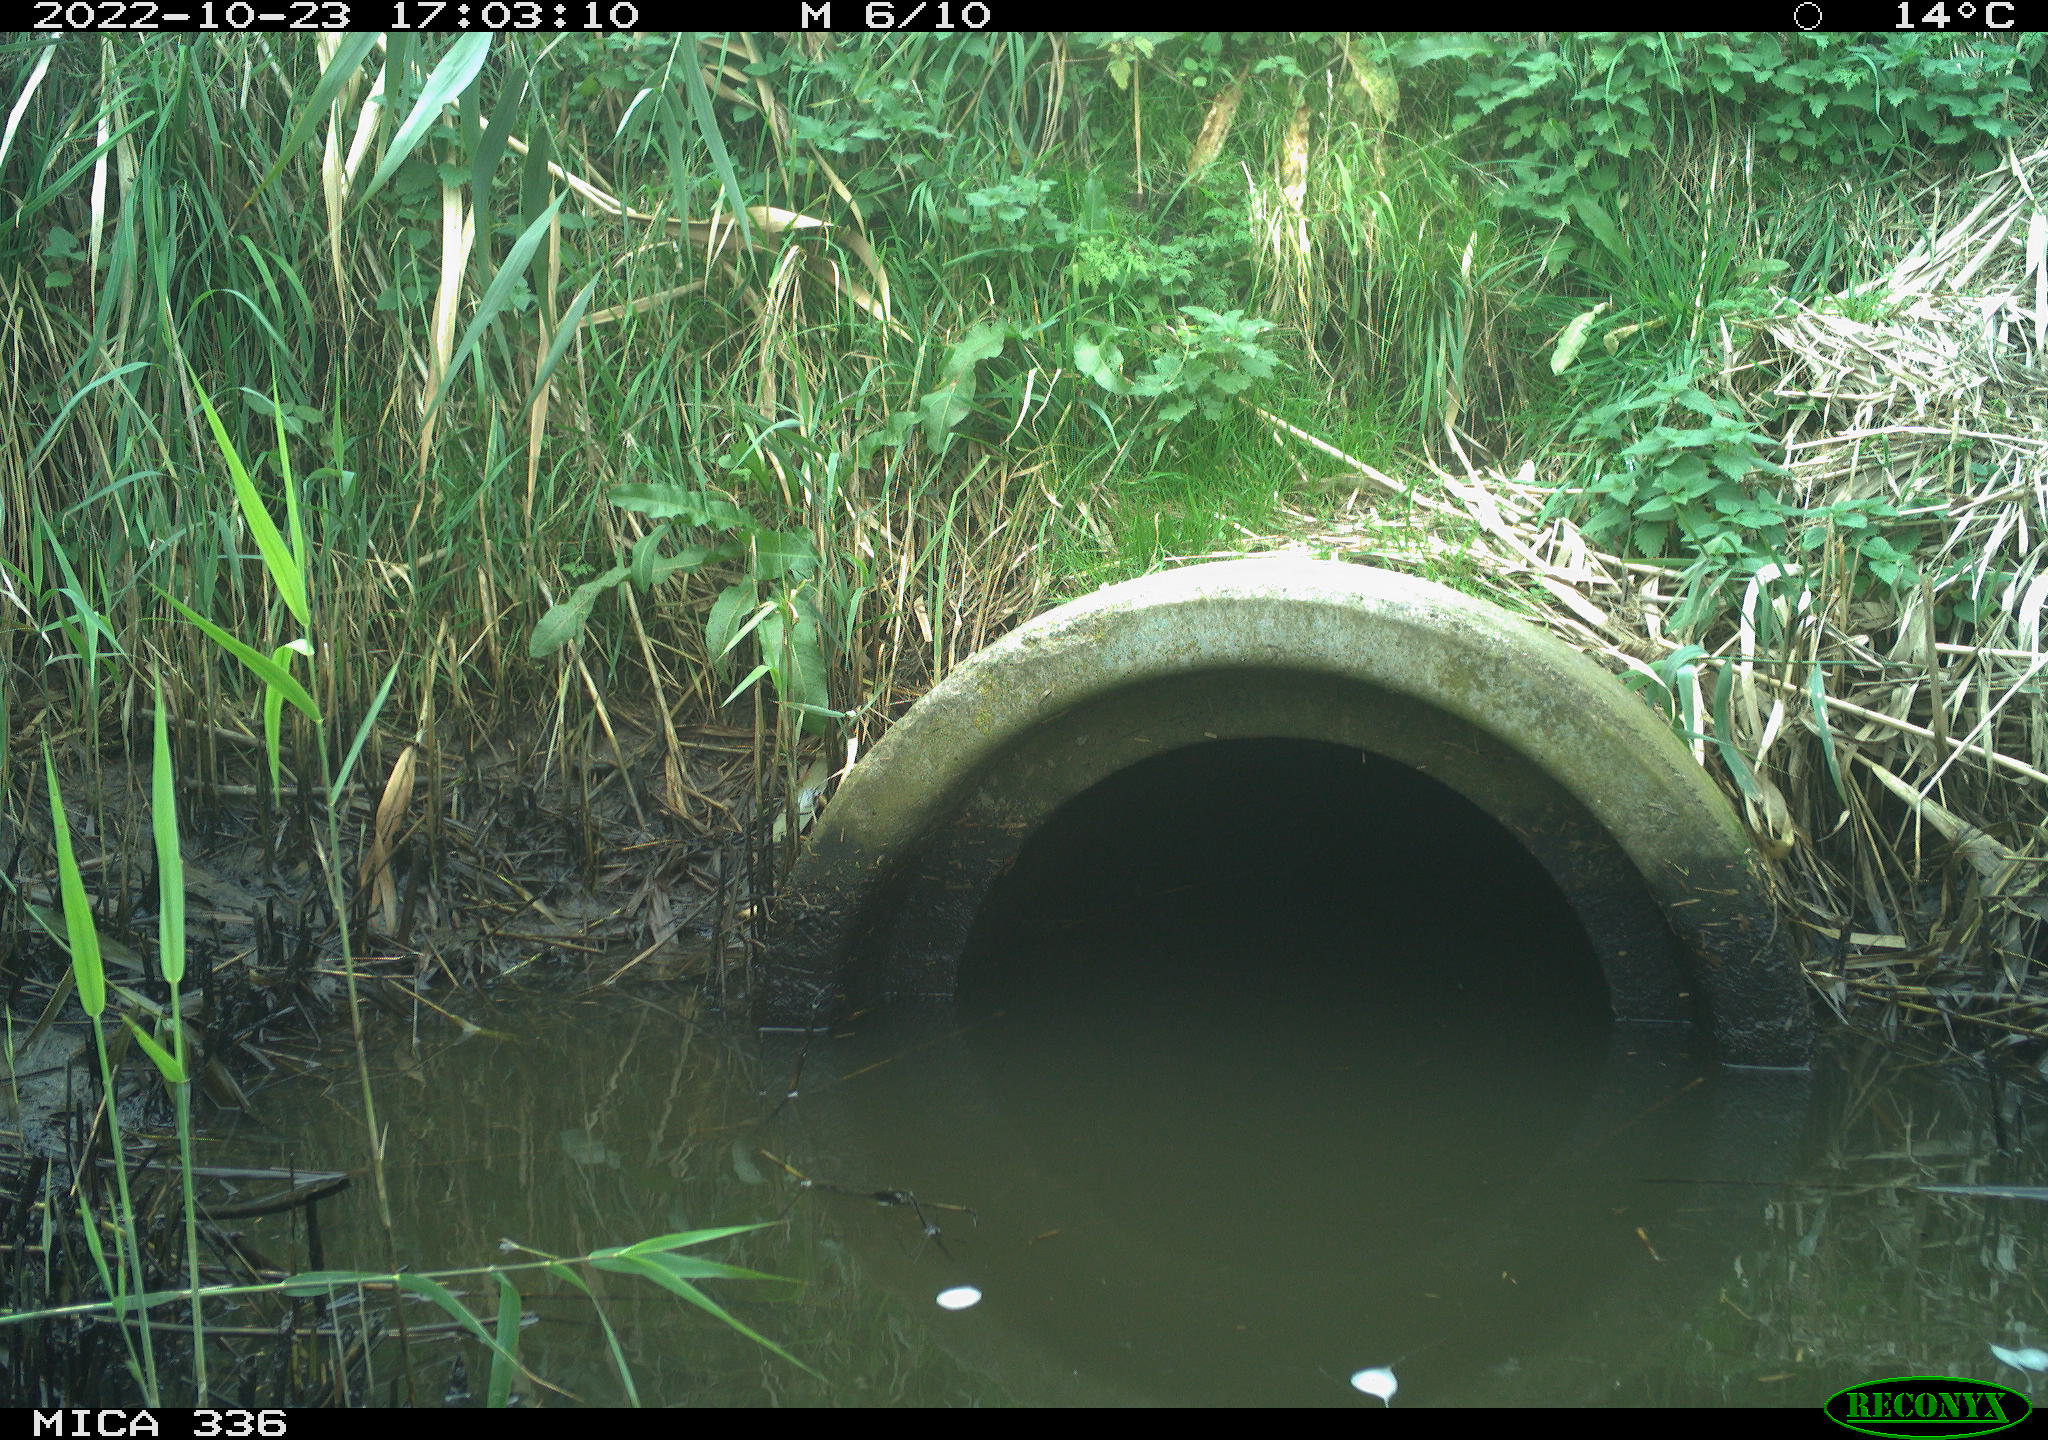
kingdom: Animalia
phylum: Chordata
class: Mammalia
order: Carnivora
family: Mustelidae
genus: Mustela
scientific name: Mustela nivalis
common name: Least weasel
